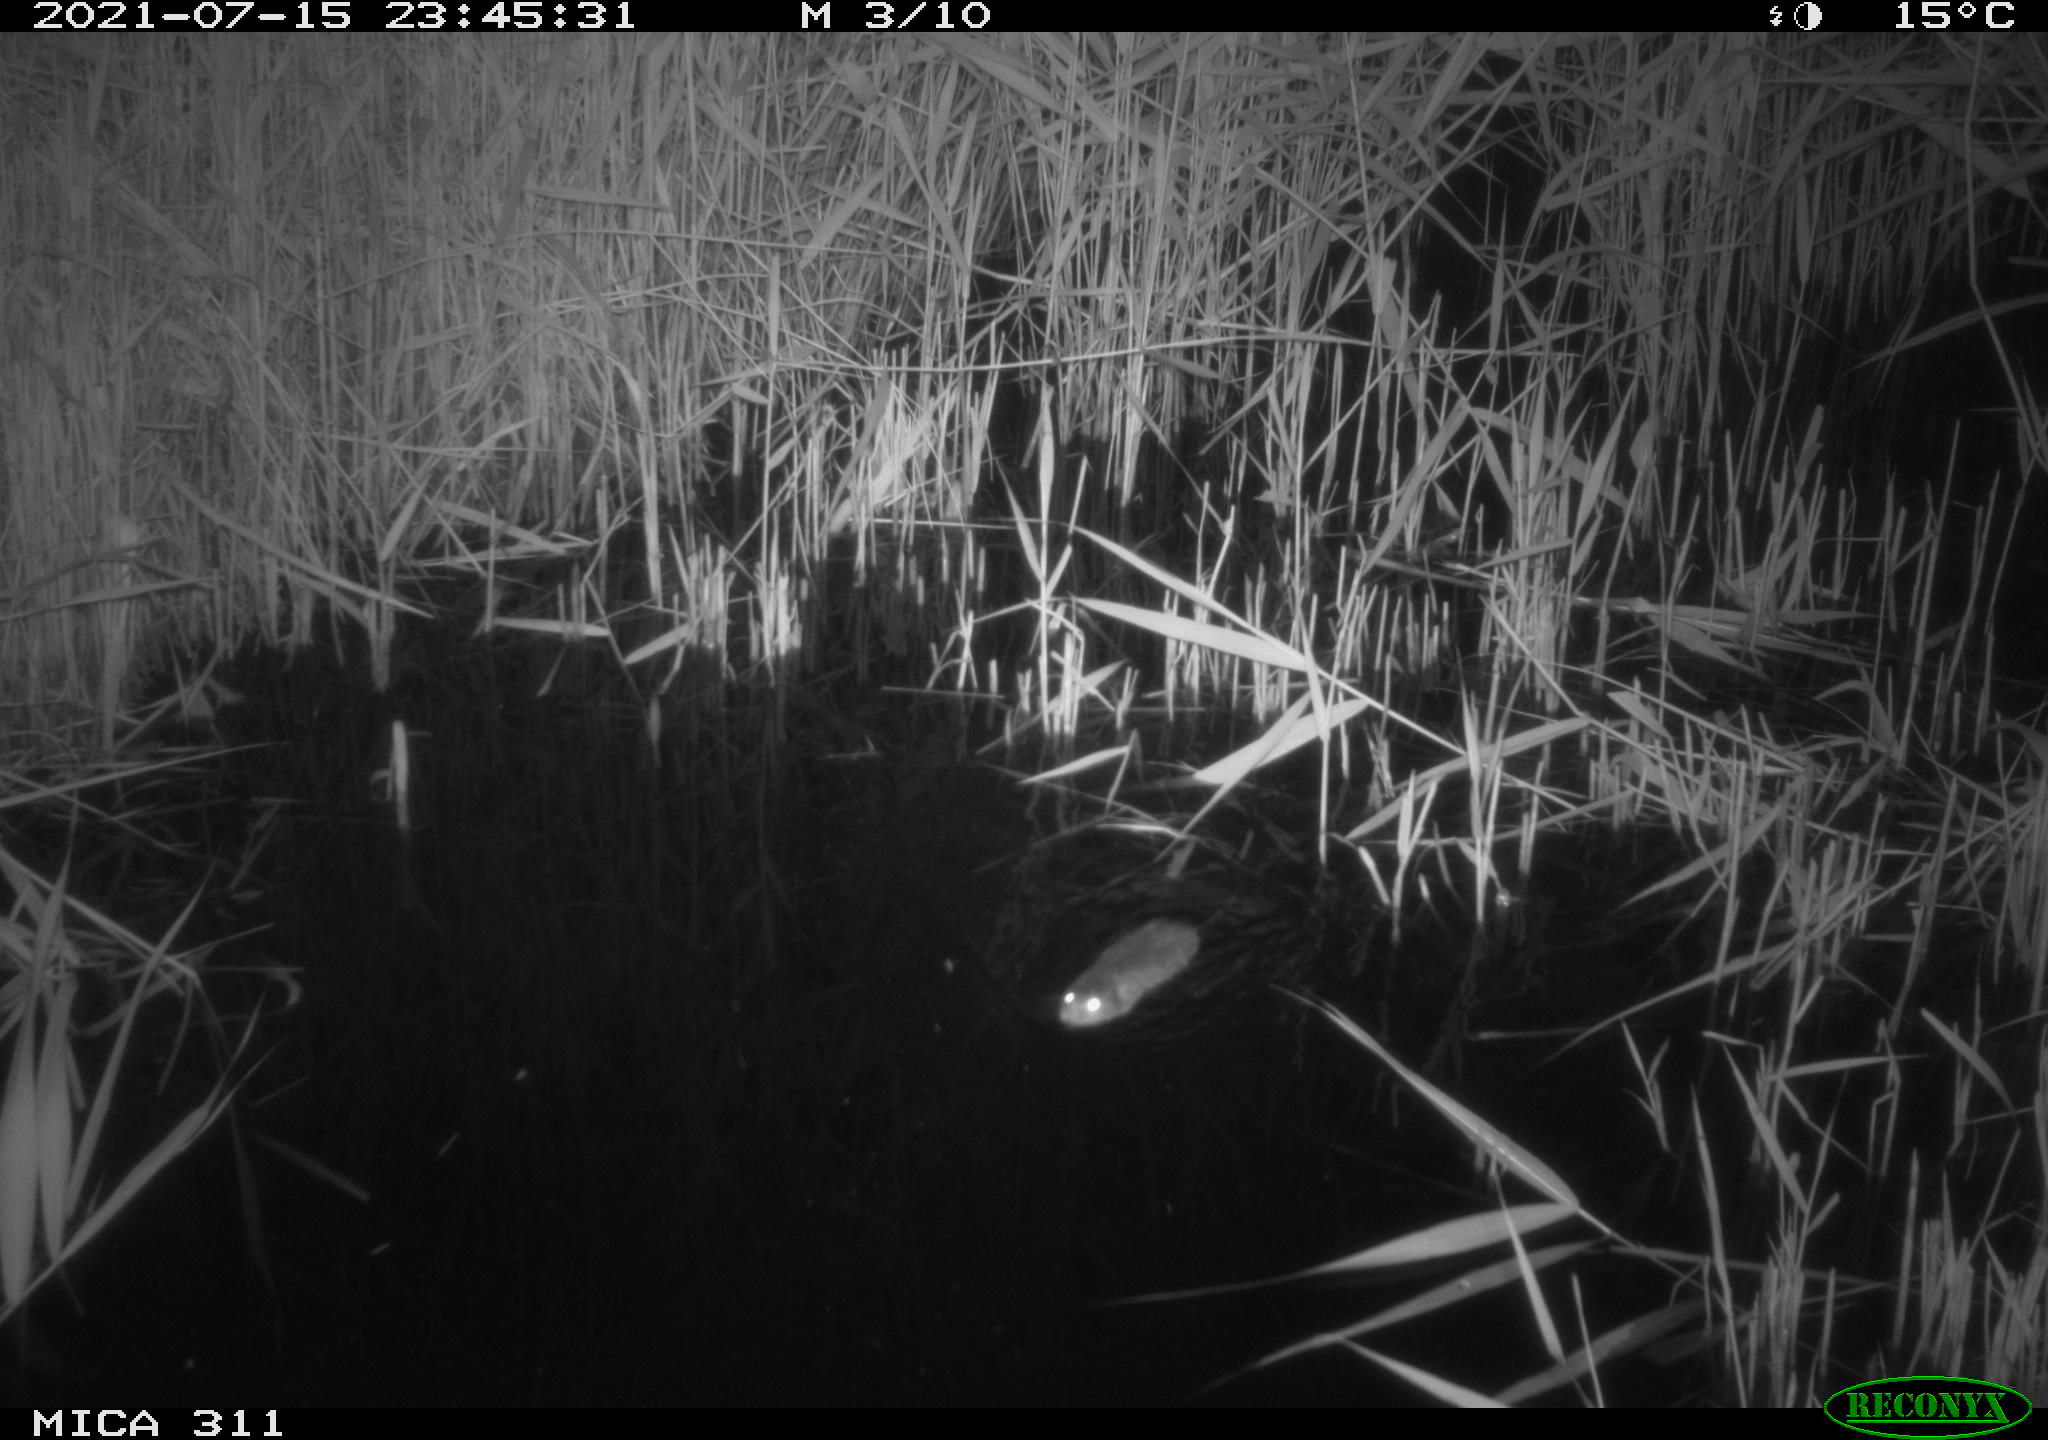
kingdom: Animalia
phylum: Chordata
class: Mammalia
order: Rodentia
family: Muridae
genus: Rattus
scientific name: Rattus norvegicus
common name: Brown rat
